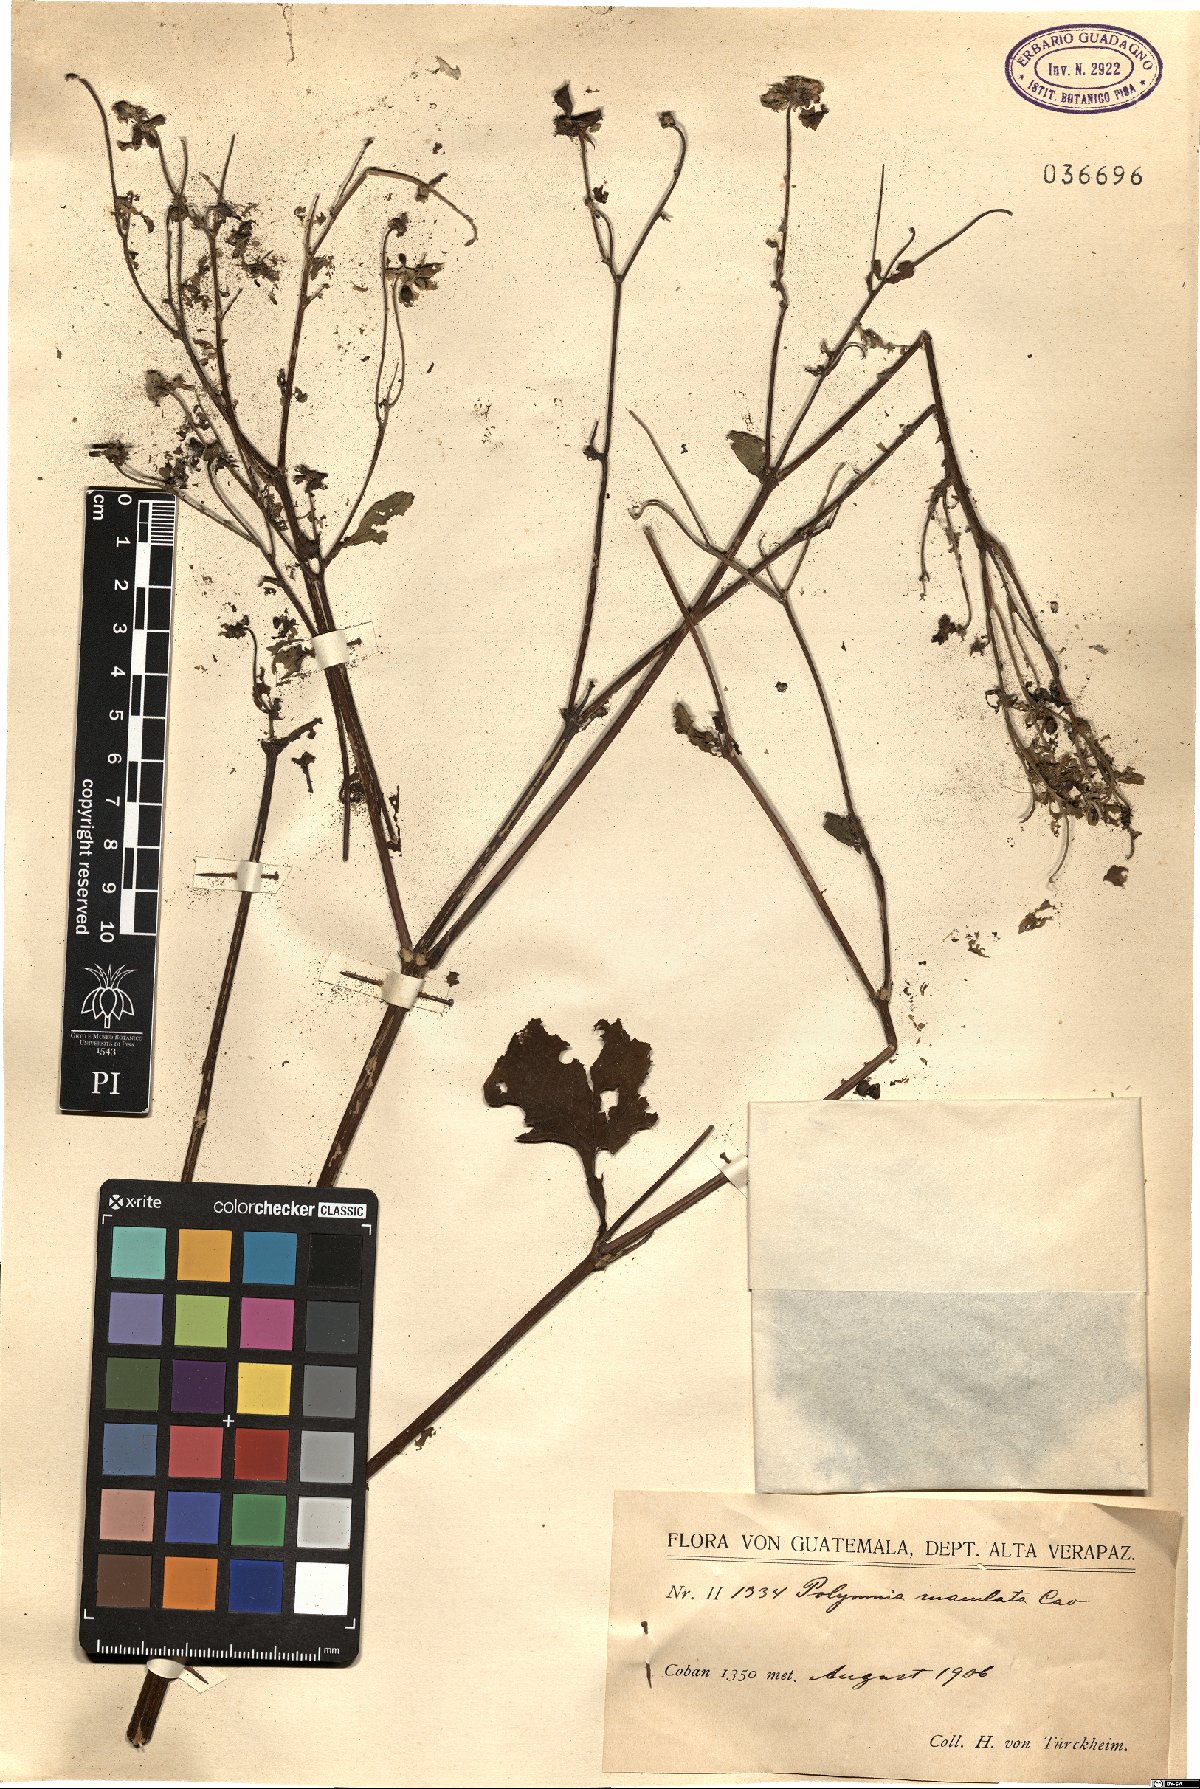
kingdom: Plantae
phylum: Tracheophyta
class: Magnoliopsida
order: Asterales
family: Asteraceae
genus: Smallanthus
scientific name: Smallanthus maculatus
